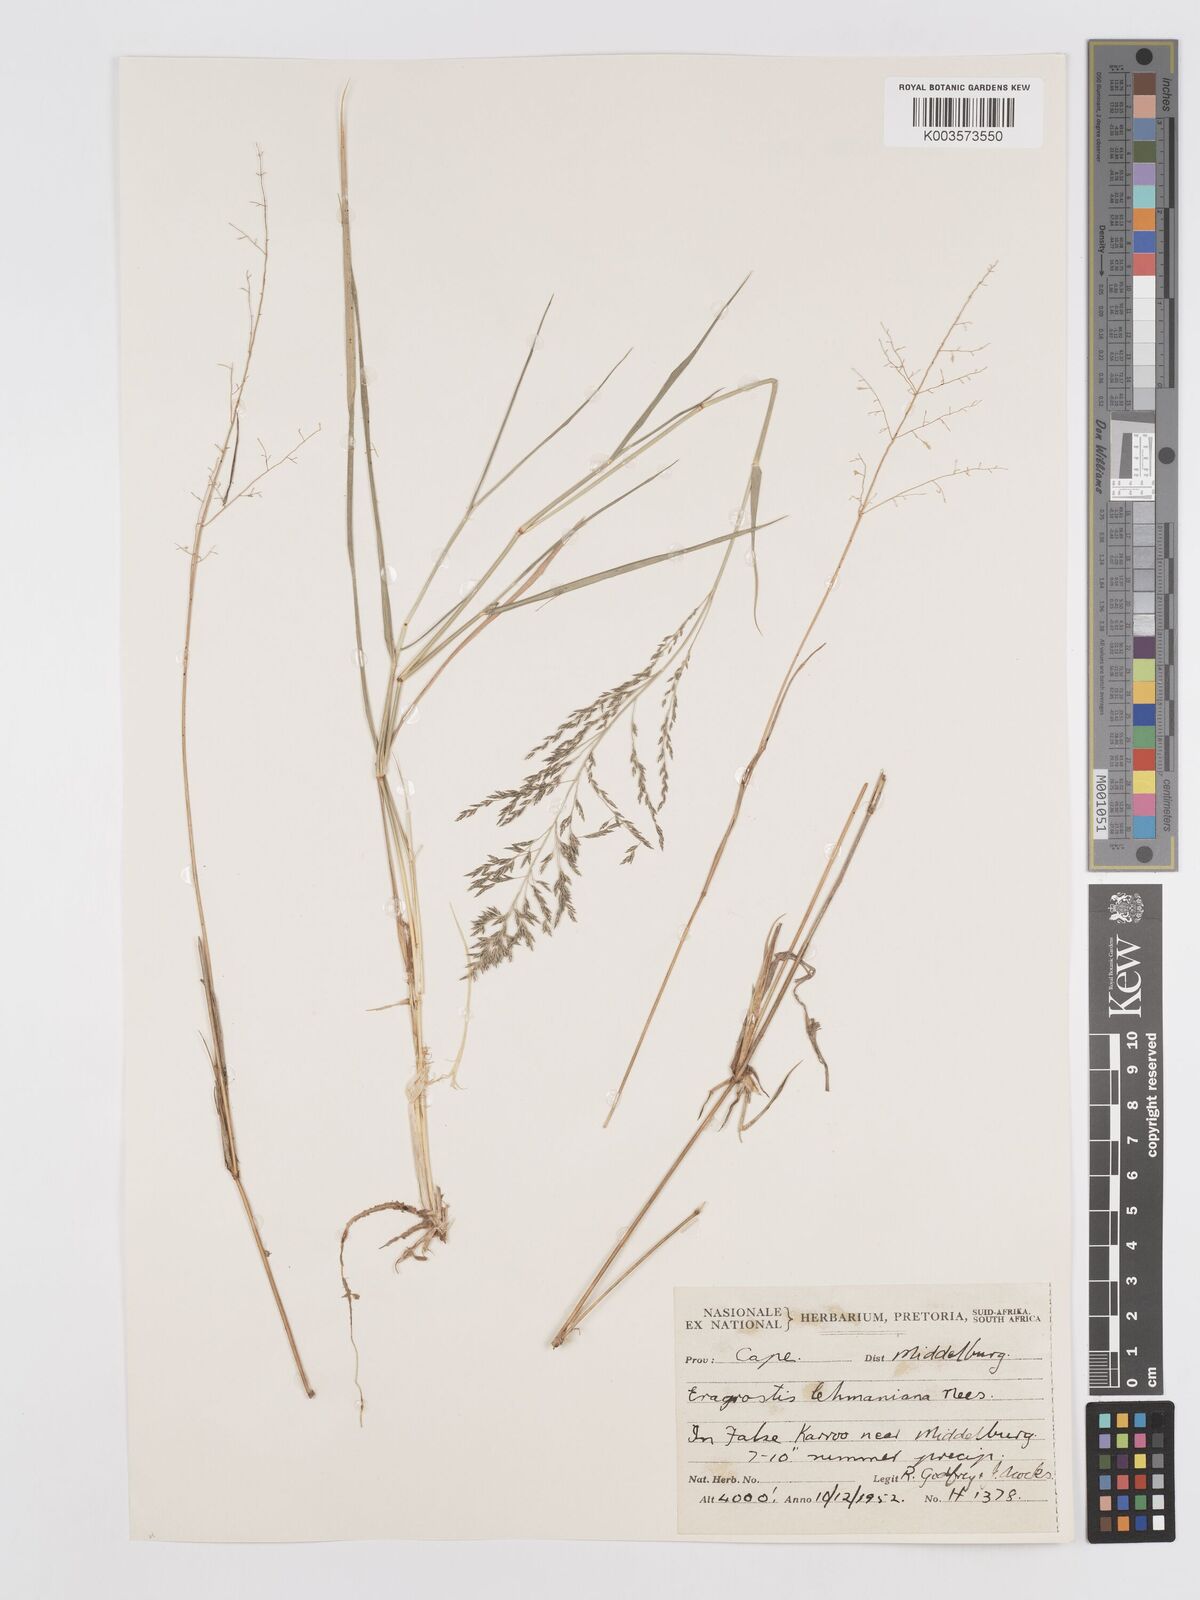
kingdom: Plantae
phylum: Tracheophyta
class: Liliopsida
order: Poales
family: Poaceae
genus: Eragrostis
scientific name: Eragrostis lehmanniana
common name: Lehmann lovegrass
